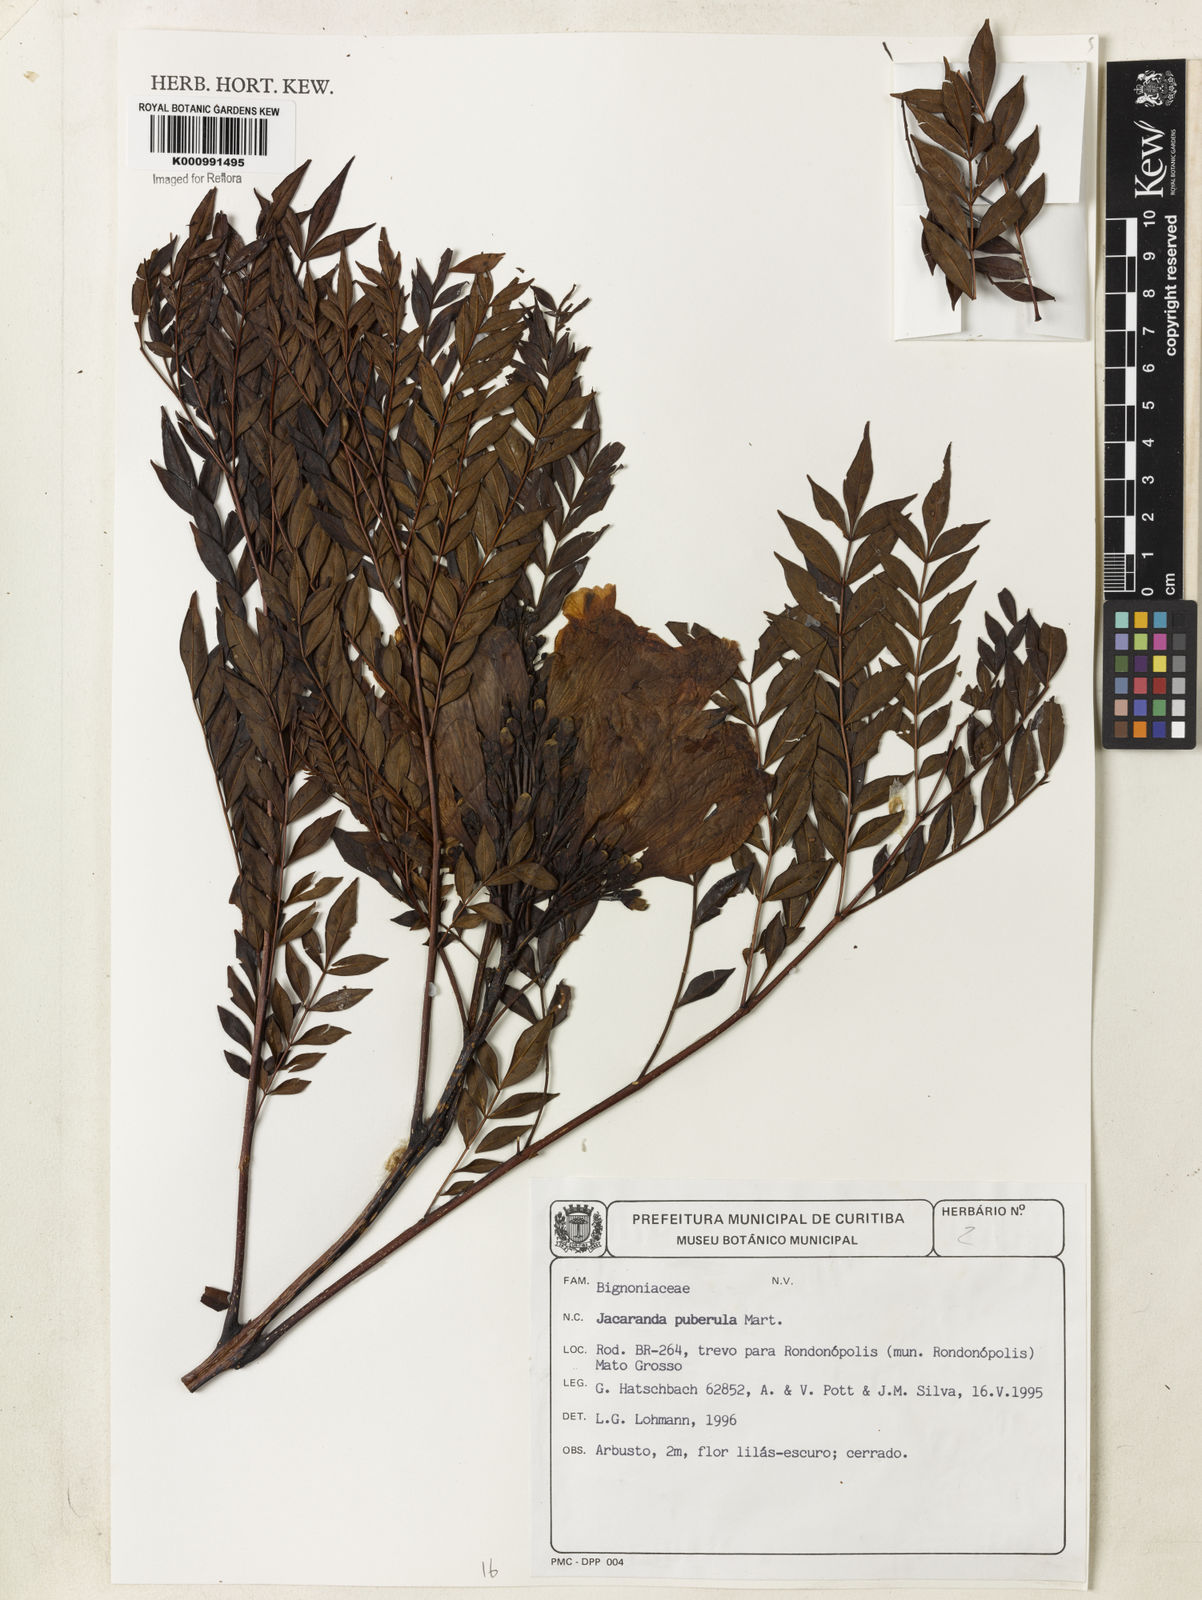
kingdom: Plantae
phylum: Tracheophyta
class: Magnoliopsida
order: Lamiales
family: Bignoniaceae
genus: Jacaranda
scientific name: Jacaranda puberula
